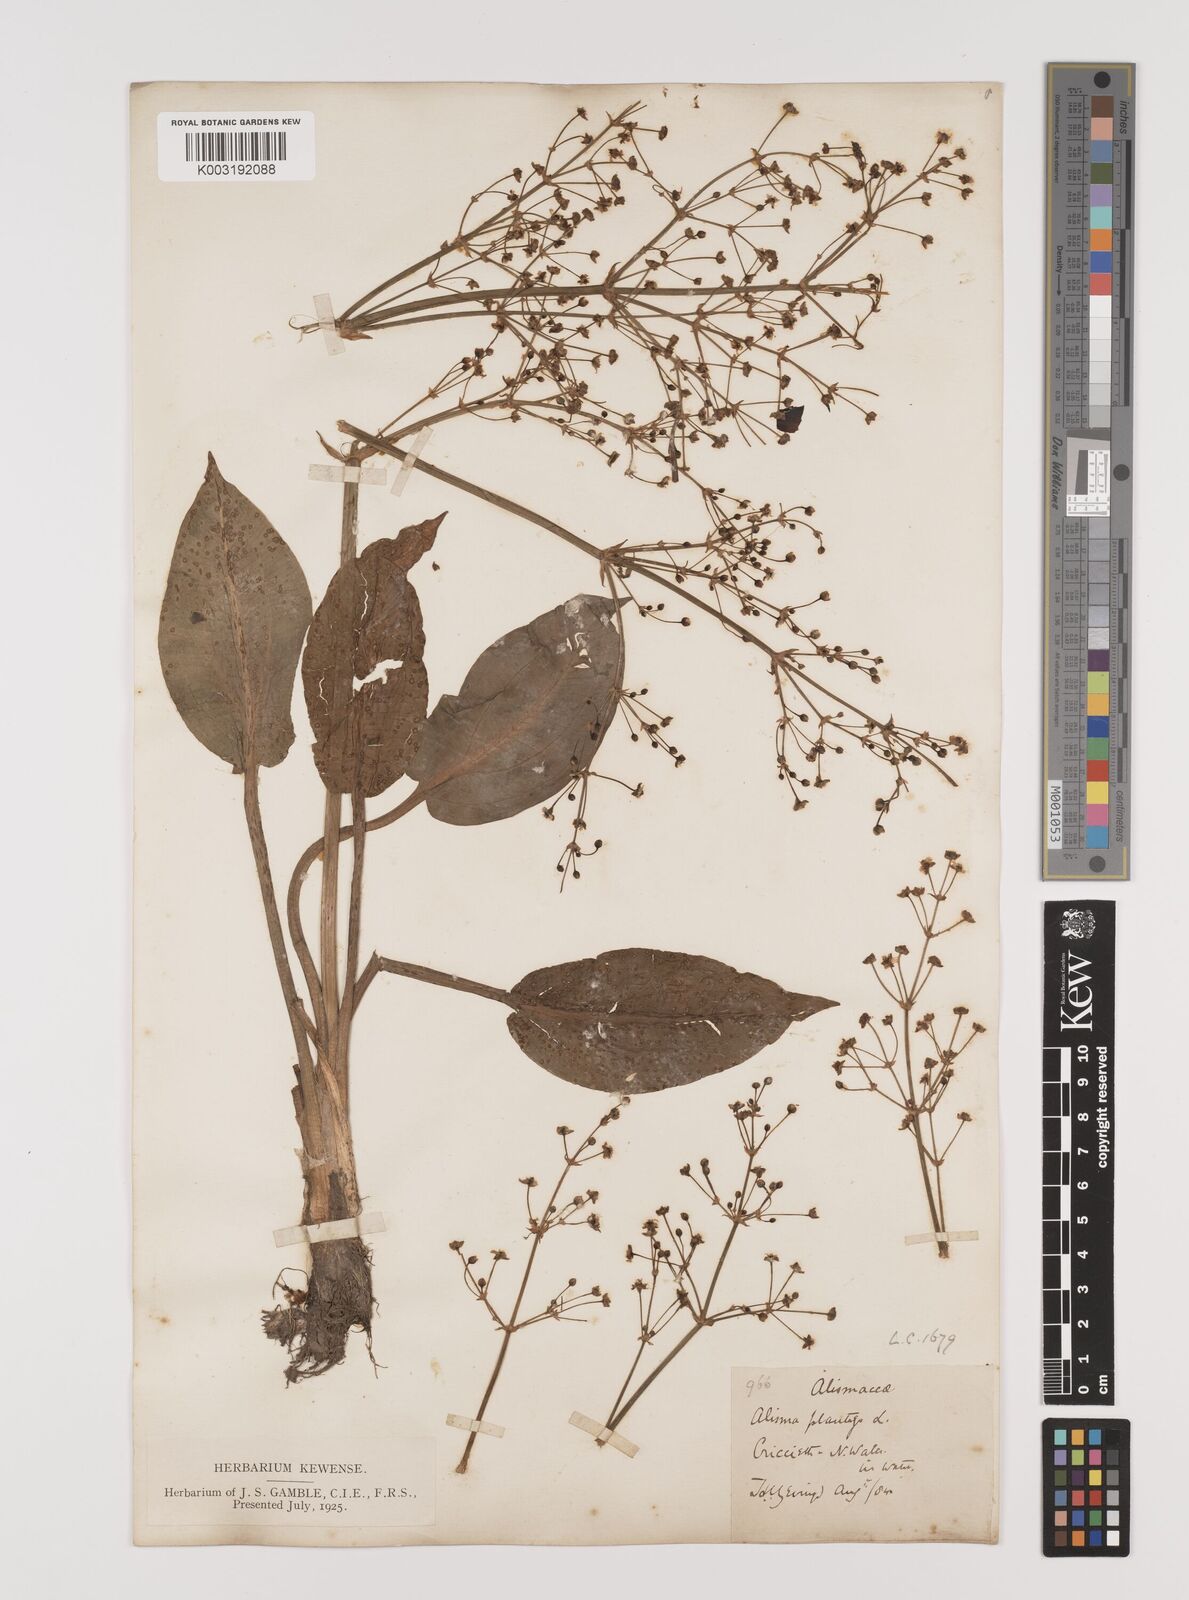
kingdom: Plantae
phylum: Tracheophyta
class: Liliopsida
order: Alismatales
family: Alismataceae
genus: Alisma
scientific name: Alisma plantago-aquatica
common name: Water-plantain
